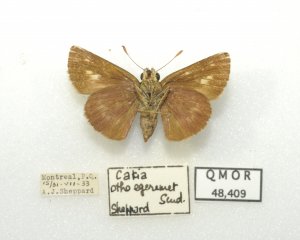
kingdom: Animalia
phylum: Arthropoda
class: Insecta
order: Lepidoptera
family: Hesperiidae
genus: Polites
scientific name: Polites egeremet
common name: Northern Broken-Dash
